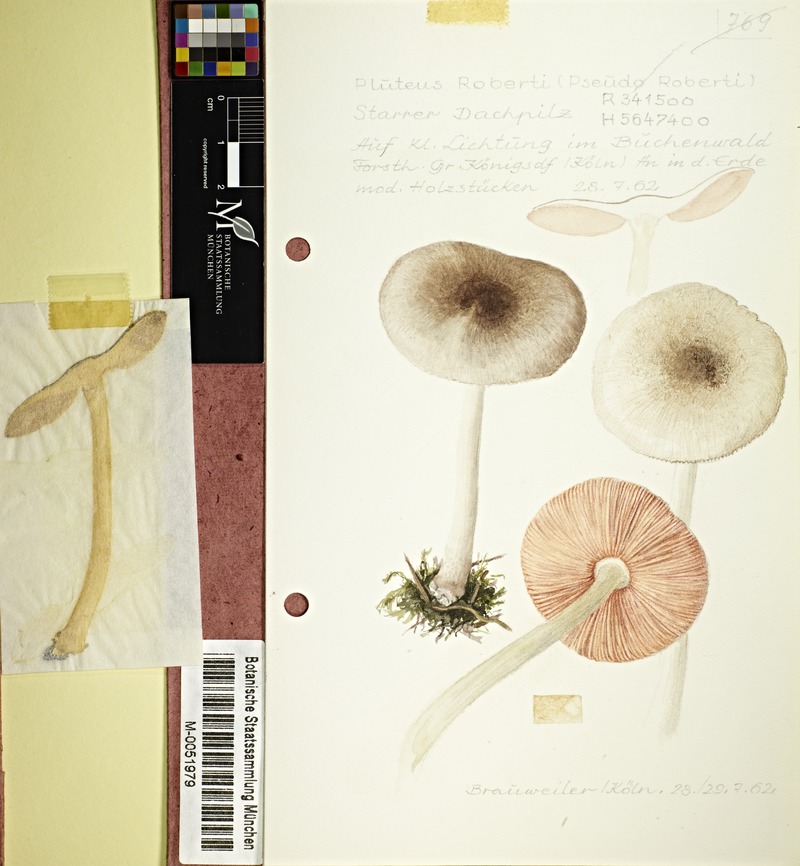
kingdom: Fungi
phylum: Basidiomycota
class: Agaricomycetes
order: Agaricales
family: Pluteaceae
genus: Pluteus
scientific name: Pluteus robertii
